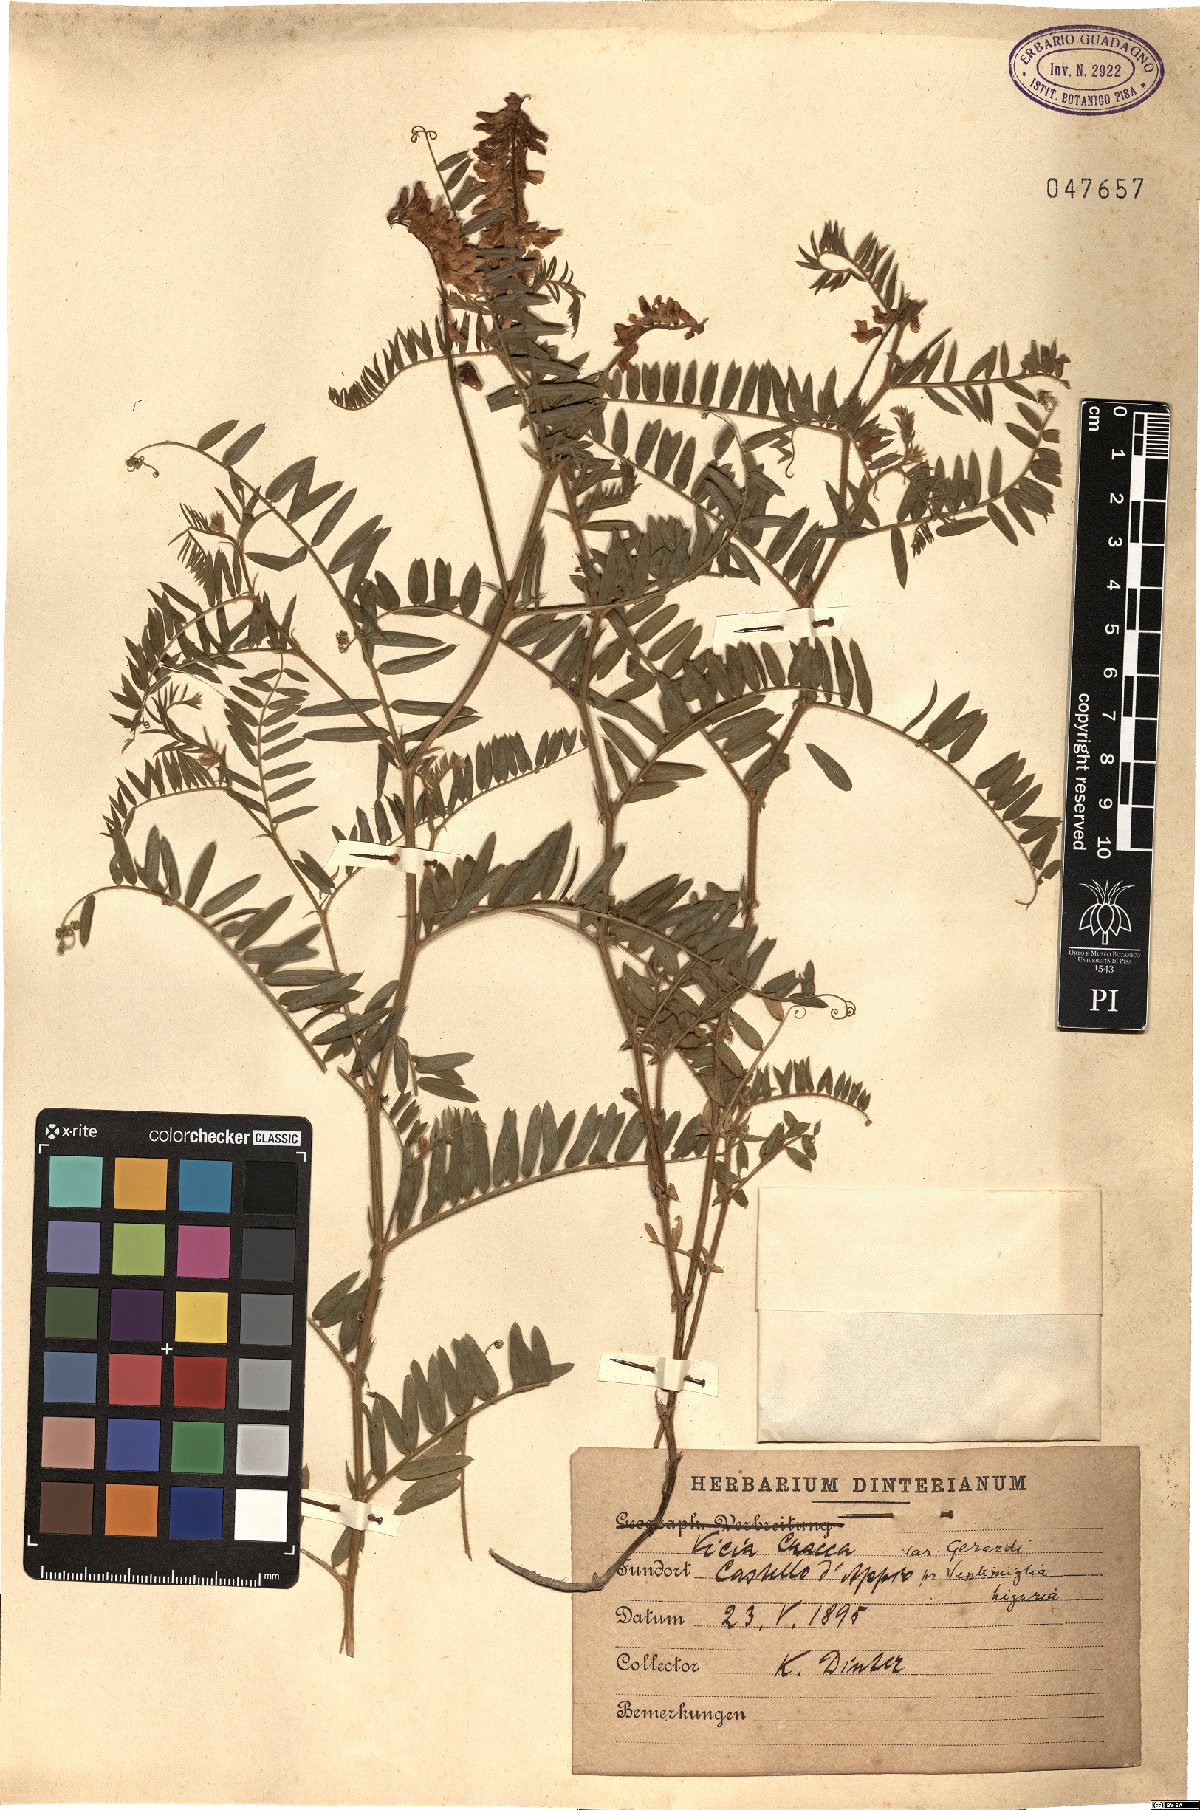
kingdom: Plantae
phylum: Tracheophyta
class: Magnoliopsida
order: Fabales
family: Fabaceae
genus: Vicia
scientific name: Vicia cracca
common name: Bird vetch
